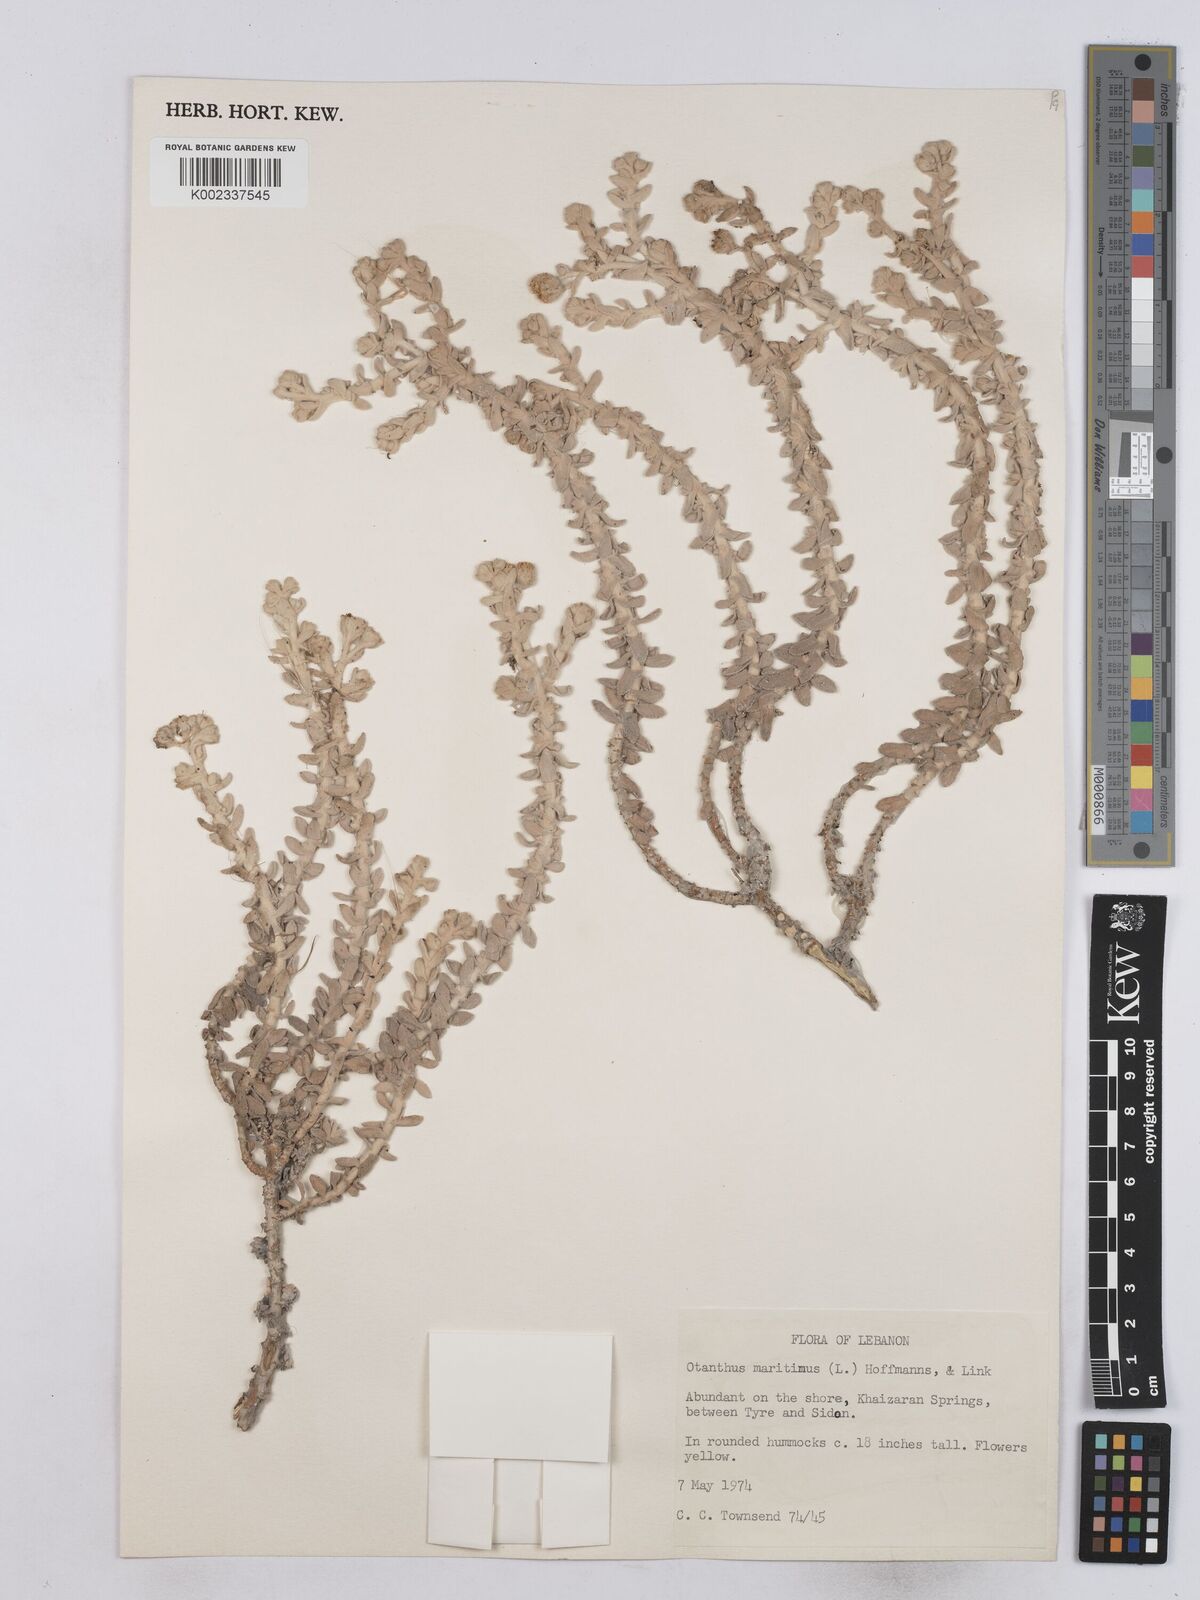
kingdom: Plantae
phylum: Tracheophyta
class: Magnoliopsida
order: Asterales
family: Asteraceae
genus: Achillea
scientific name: Achillea maritima
